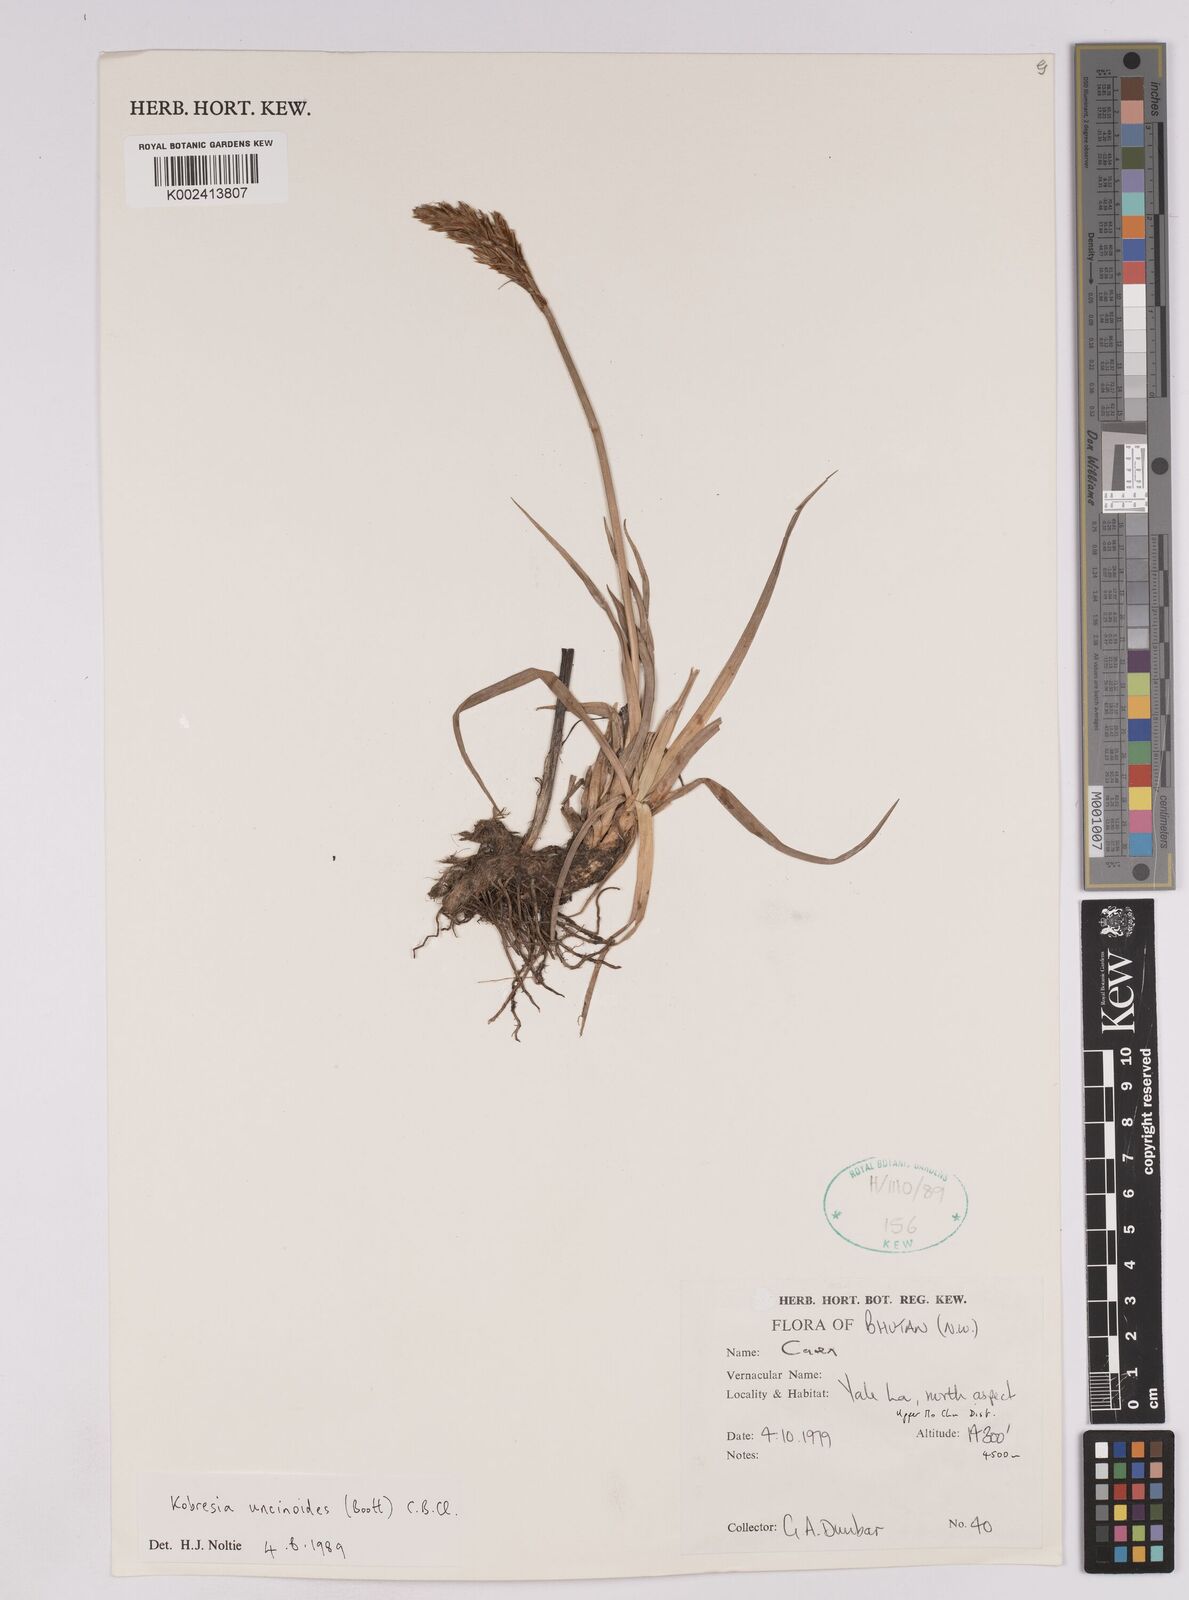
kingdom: Plantae
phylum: Tracheophyta
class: Liliopsida
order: Poales
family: Cyperaceae
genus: Carex
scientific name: Carex uncinioides
